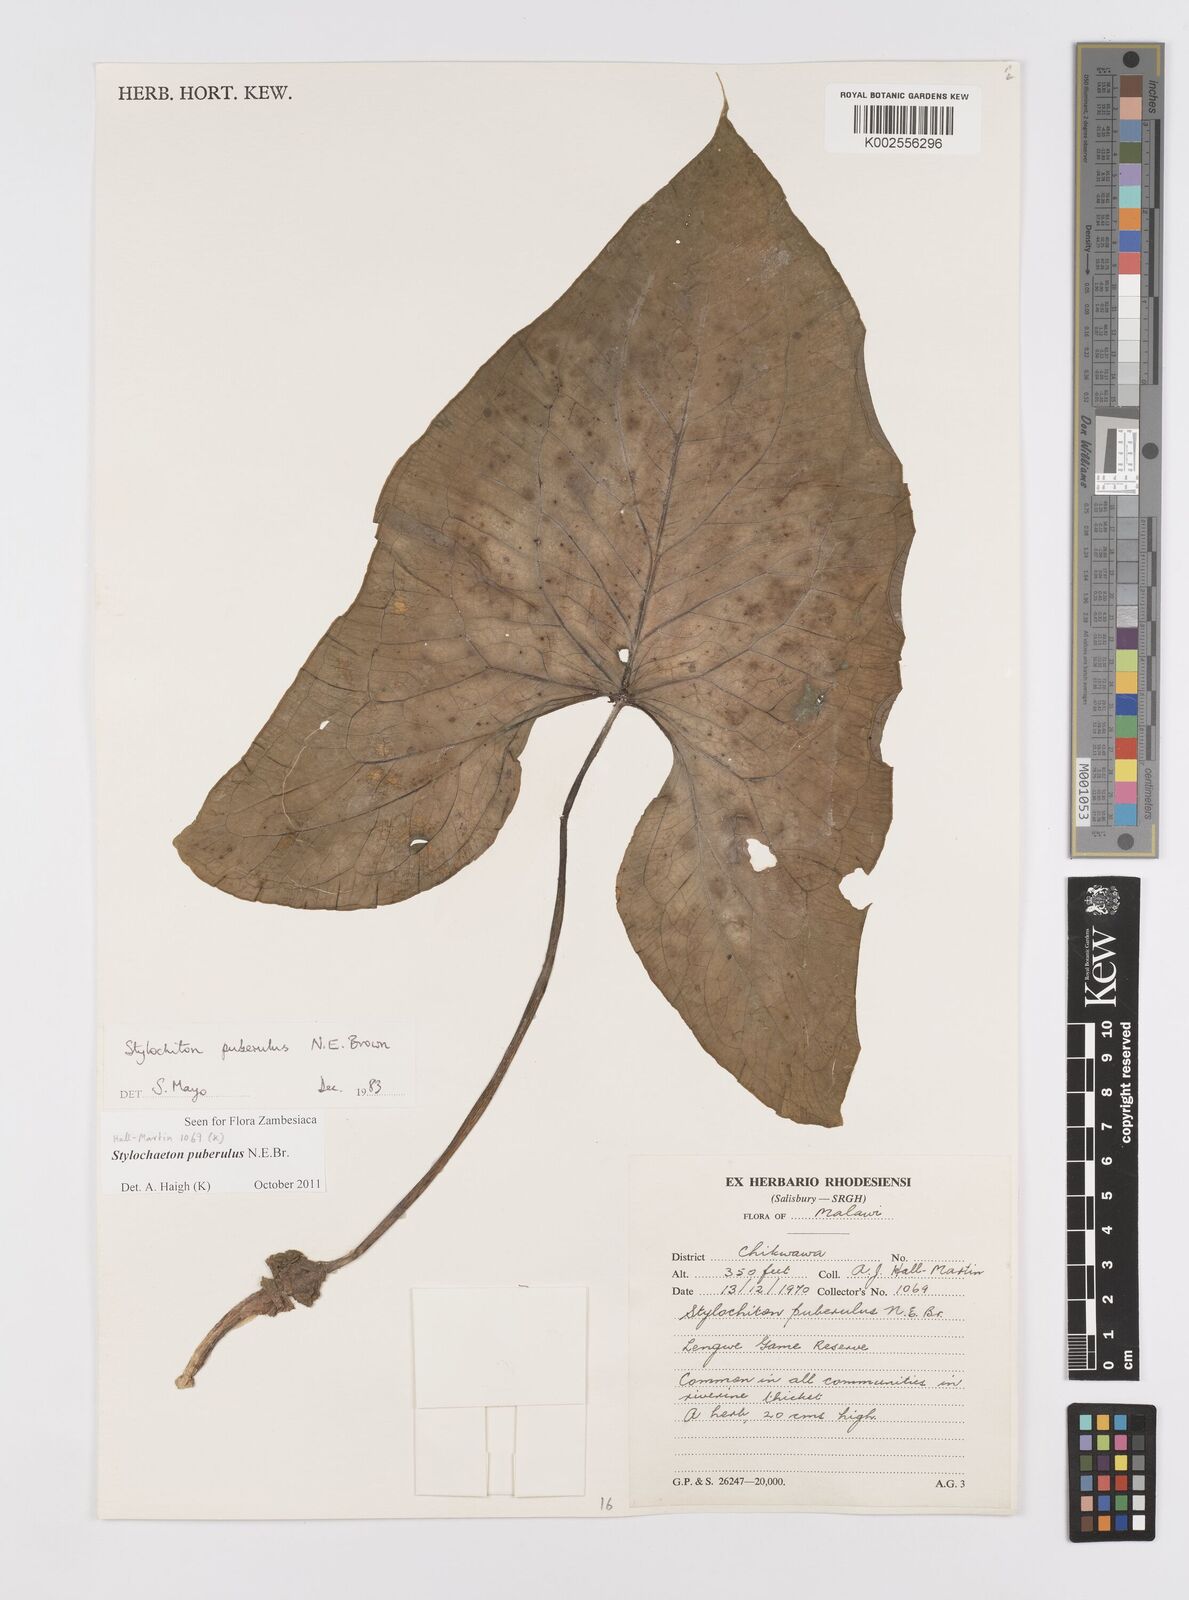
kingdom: Plantae
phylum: Tracheophyta
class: Liliopsida
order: Alismatales
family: Araceae
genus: Stylochaeton
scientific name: Stylochaeton puberulum
